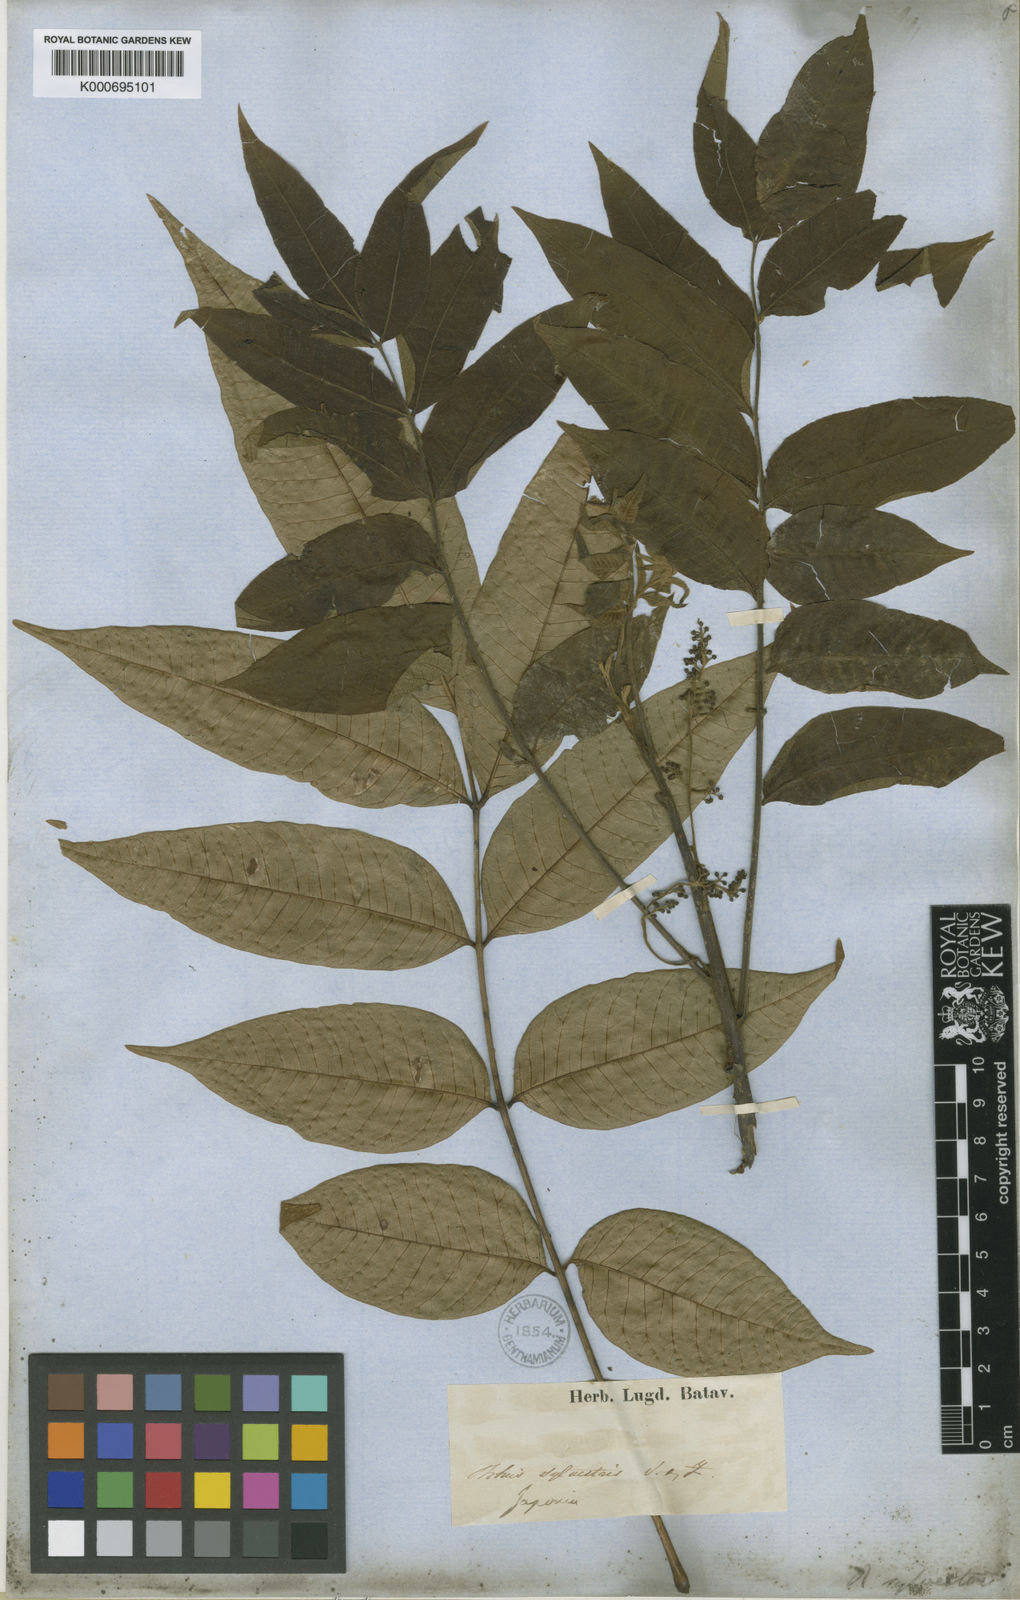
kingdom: Plantae
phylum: Tracheophyta
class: Magnoliopsida
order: Sapindales
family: Anacardiaceae
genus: Toxicodendron
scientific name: Toxicodendron sylvestre
